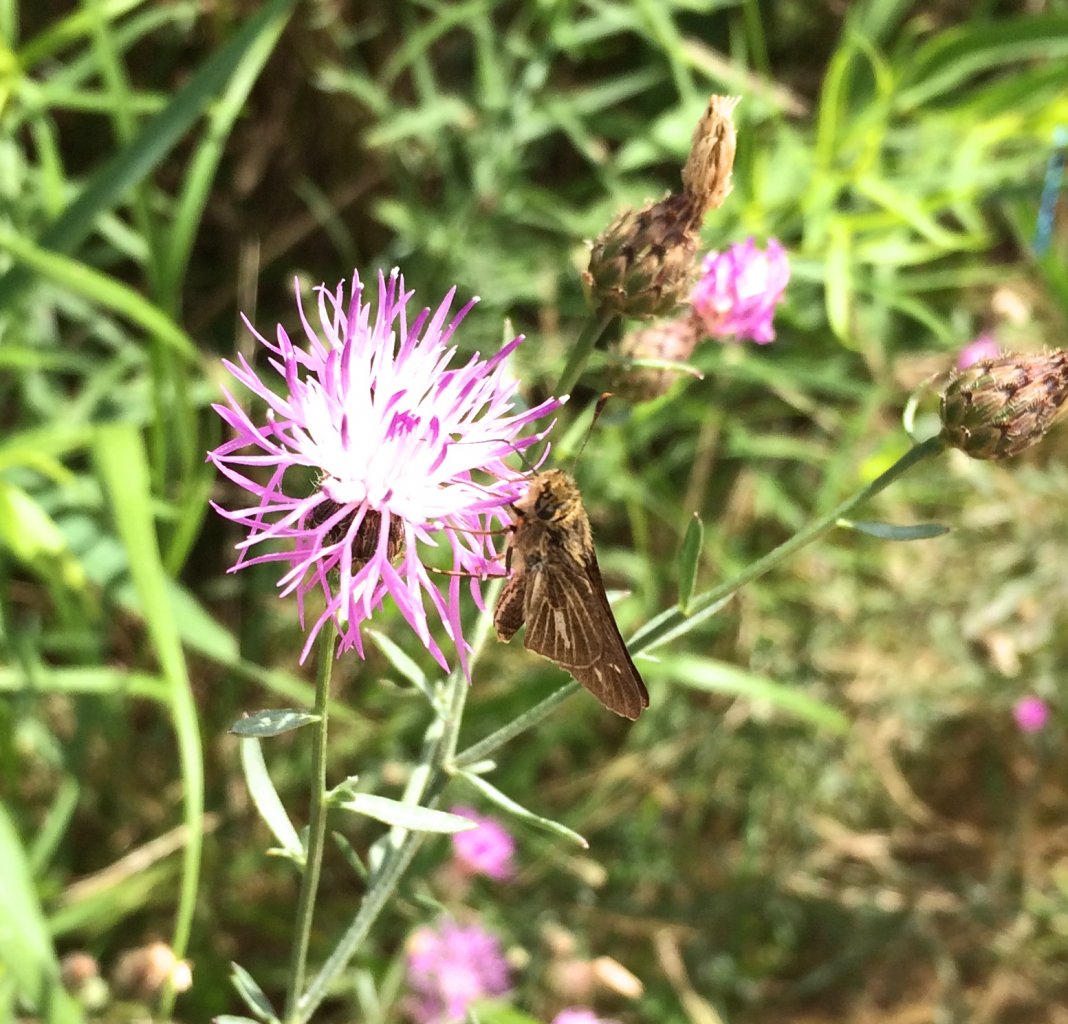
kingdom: Animalia
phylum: Arthropoda
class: Insecta
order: Lepidoptera
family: Hesperiidae
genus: Panoquina
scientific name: Panoquina panoquin
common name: Salt Marsh Skipper
